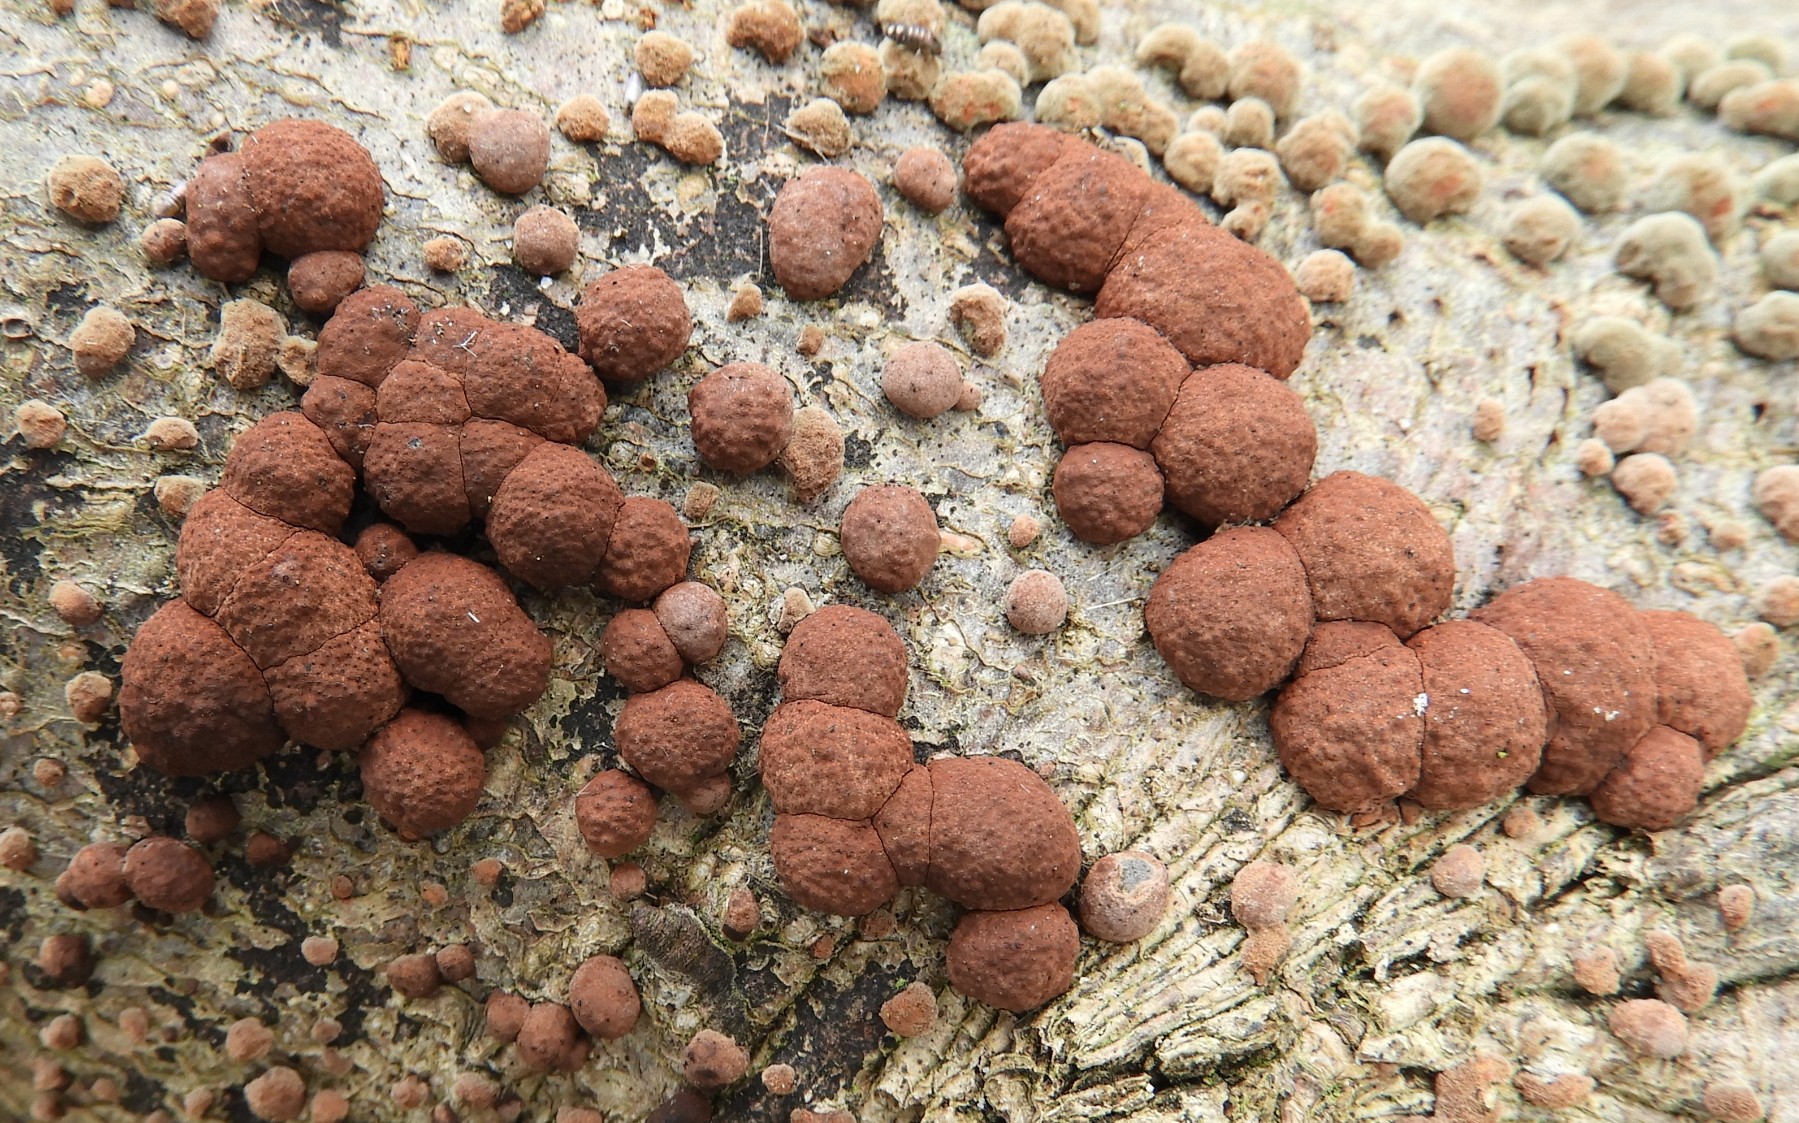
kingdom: Fungi
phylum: Ascomycota
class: Sordariomycetes
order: Xylariales
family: Hypoxylaceae
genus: Hypoxylon
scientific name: Hypoxylon fragiforme
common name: kuljordbær
